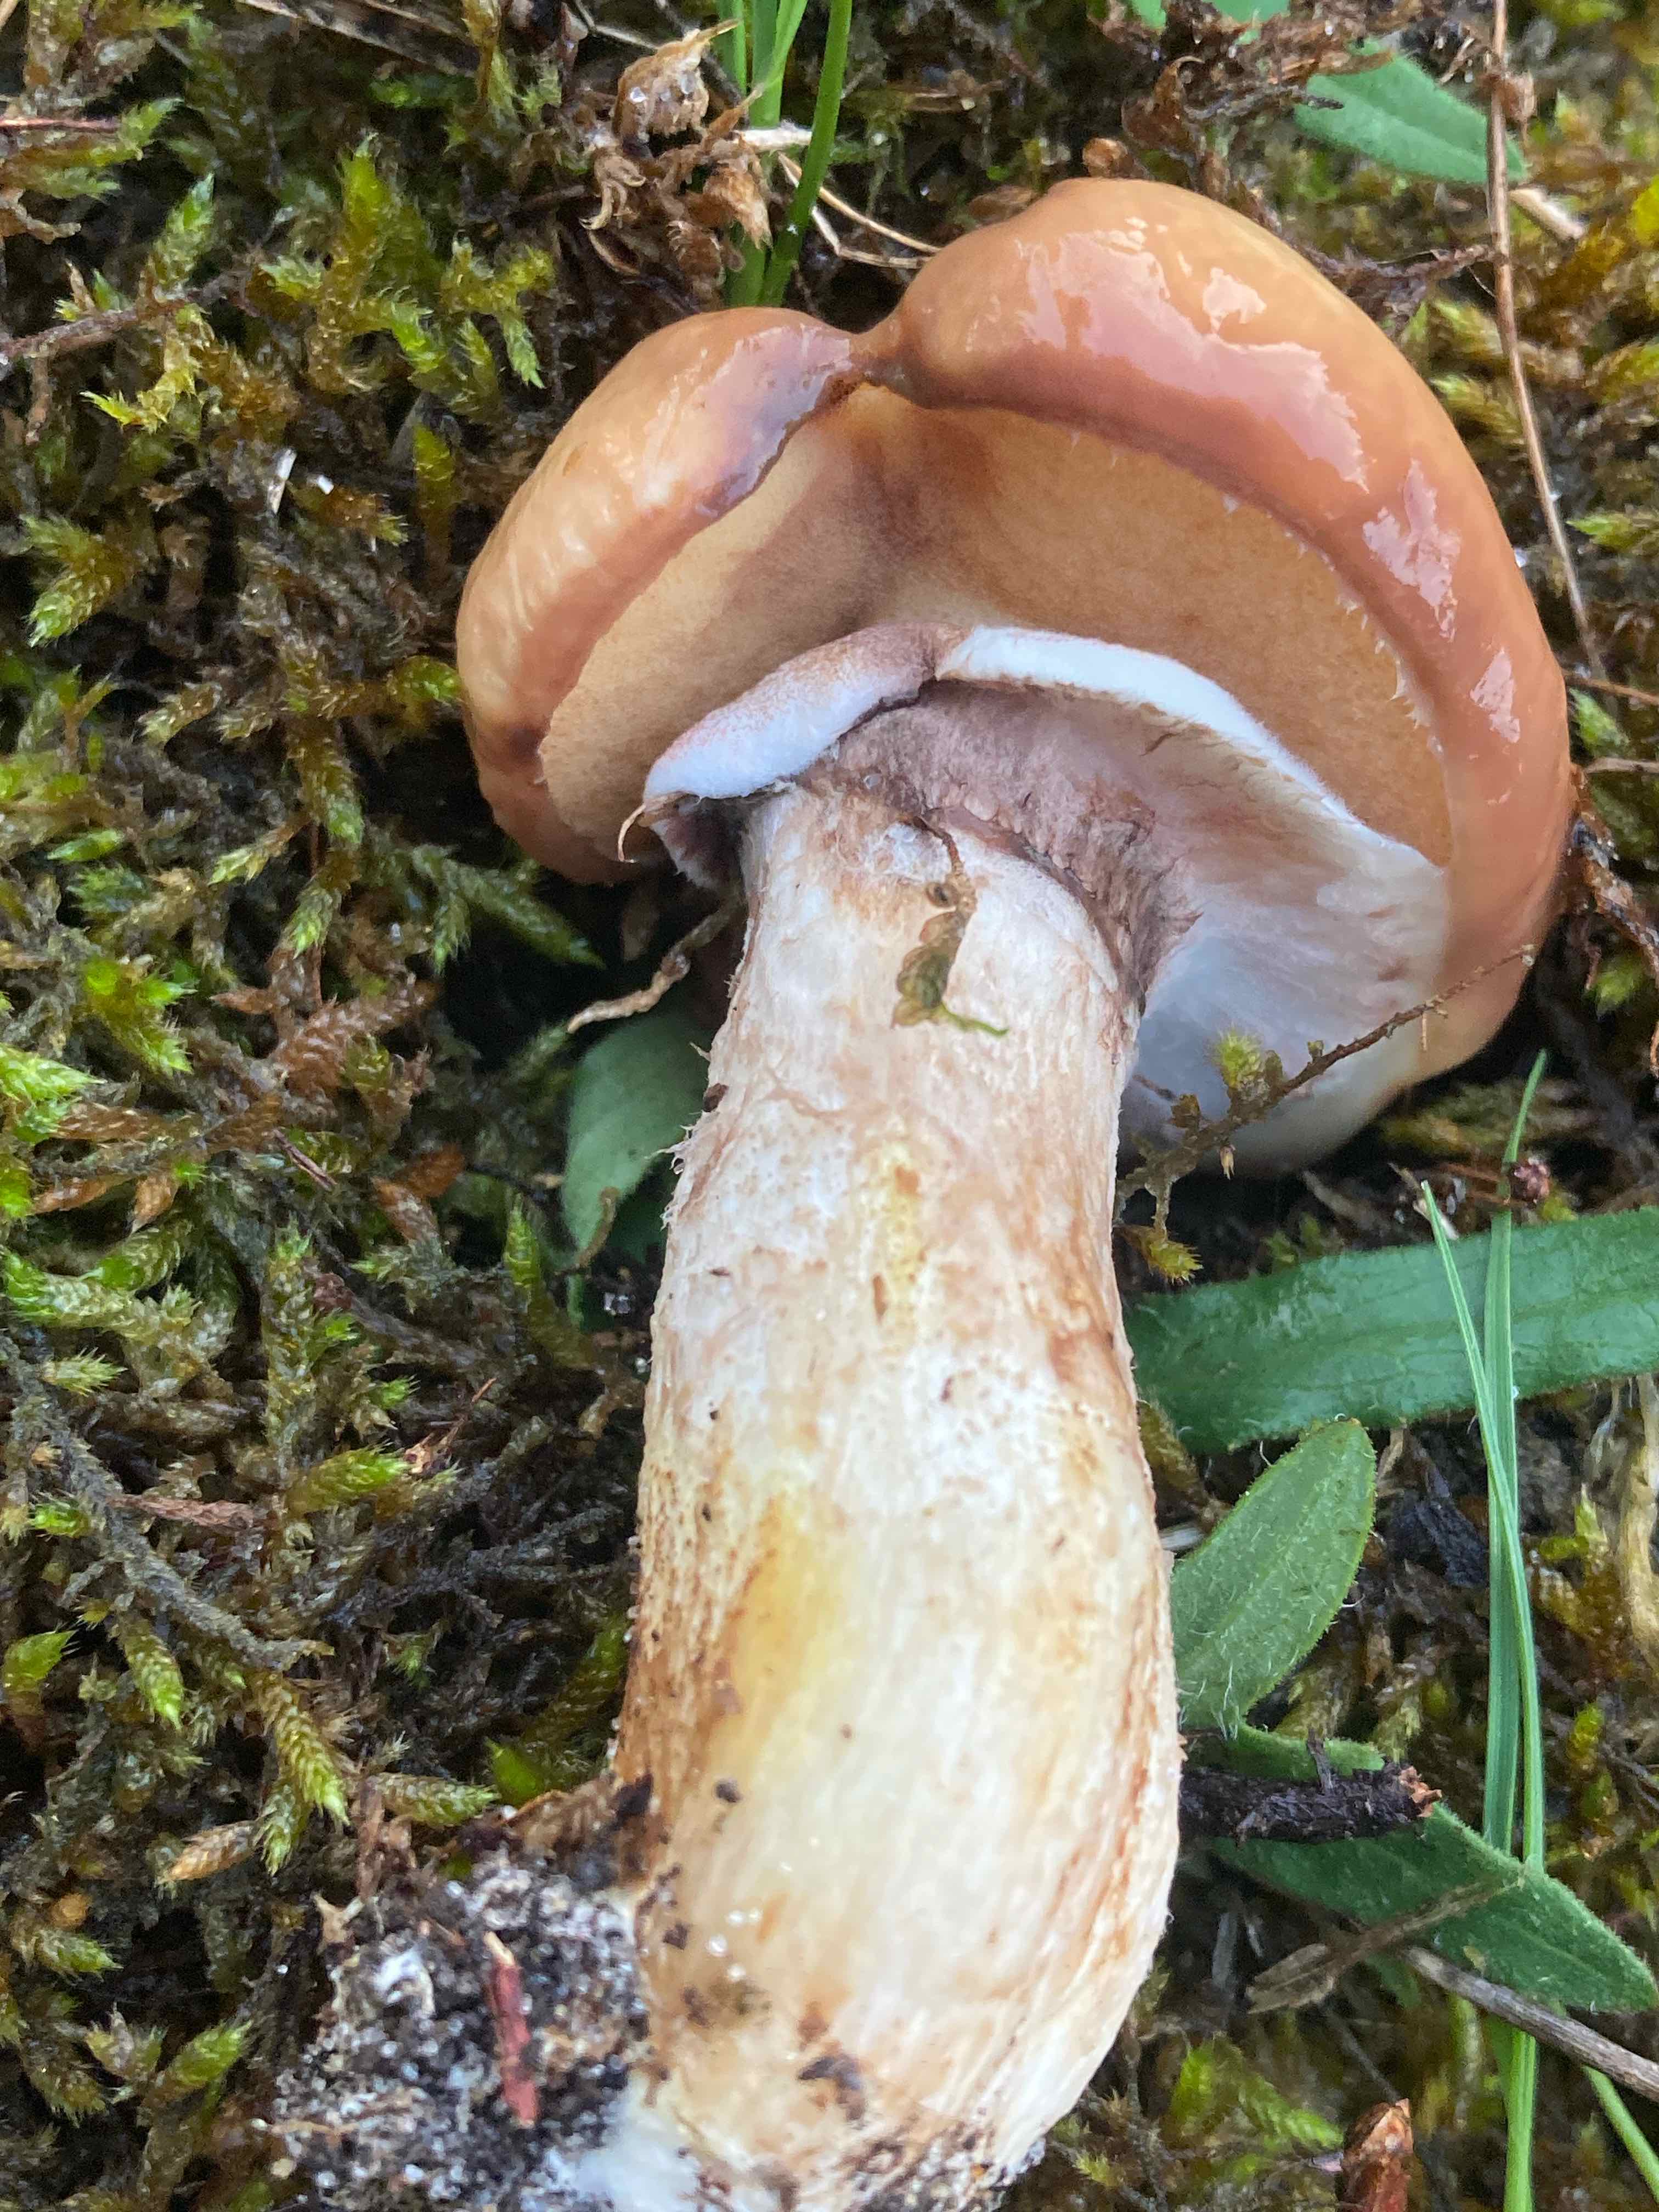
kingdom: Fungi
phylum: Basidiomycota
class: Agaricomycetes
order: Boletales
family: Suillaceae
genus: Suillus
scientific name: Suillus luteus
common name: brungul slimrørhat
